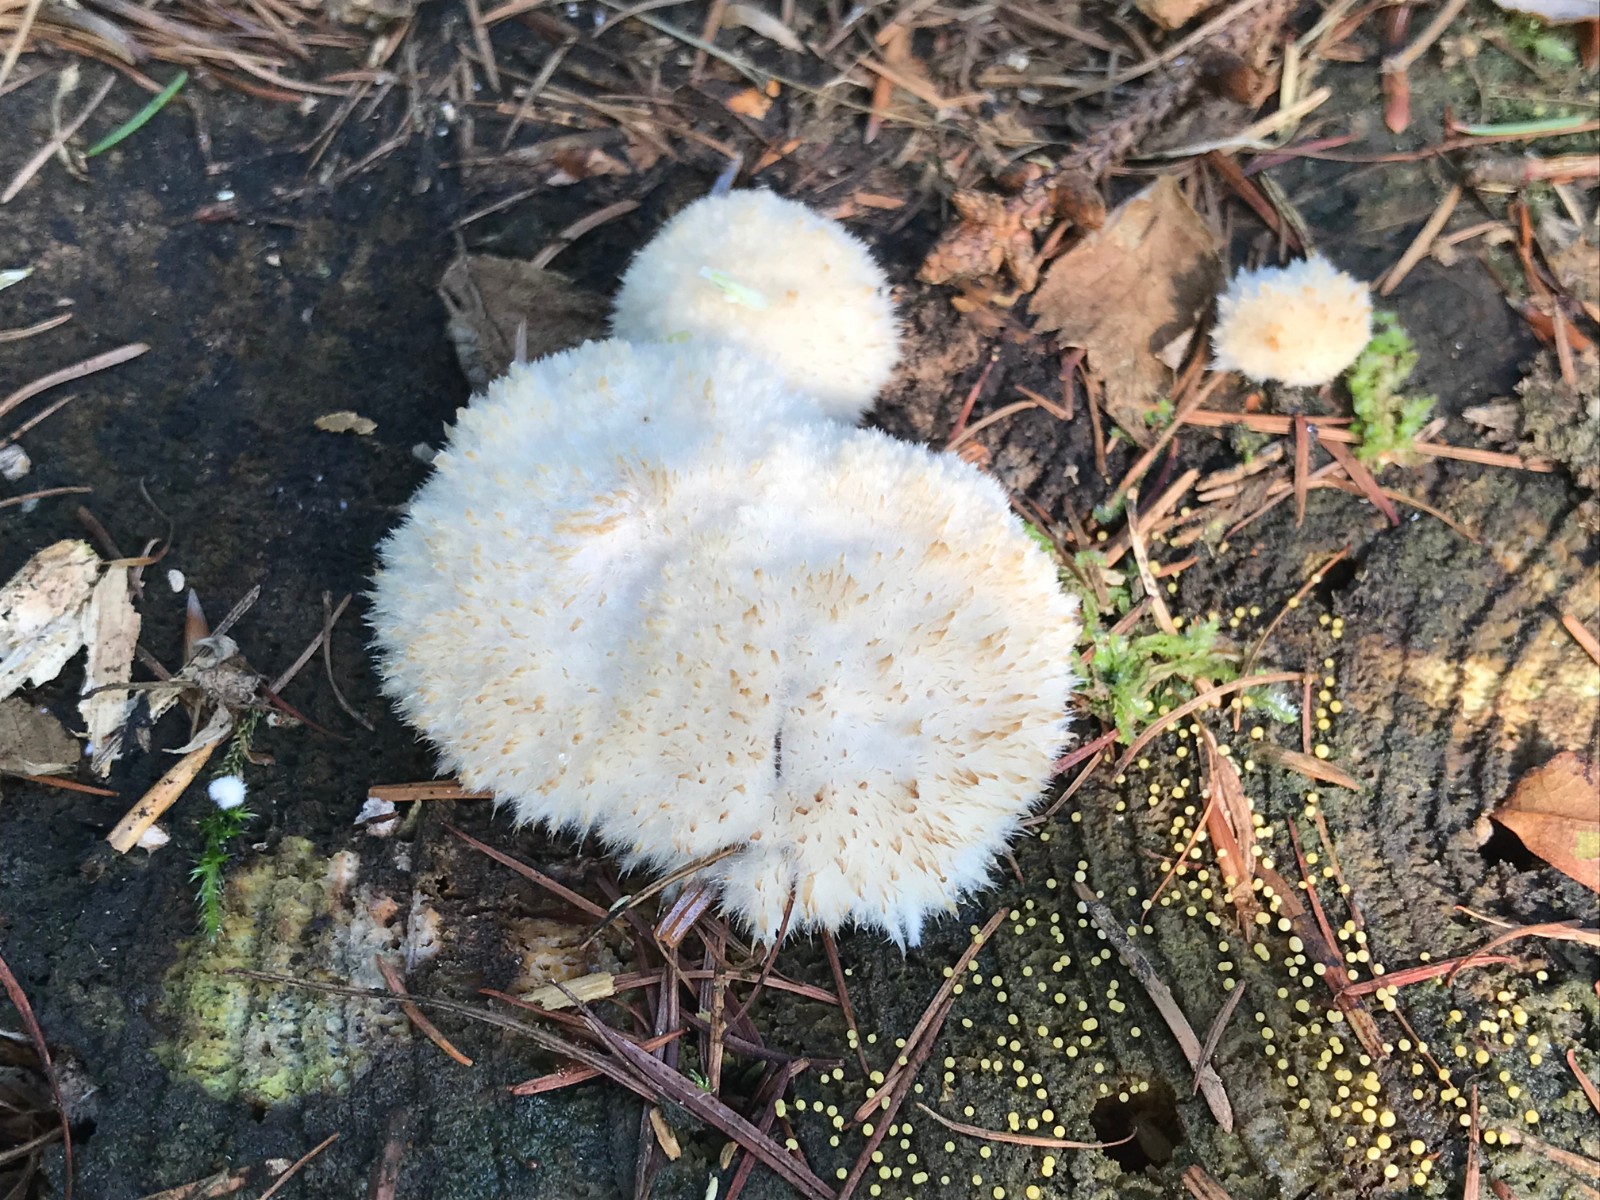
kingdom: Fungi
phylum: Basidiomycota
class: Agaricomycetes
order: Polyporales
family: Dacryobolaceae
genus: Postia
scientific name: Postia ptychogaster
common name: støvende kødporesvamp
